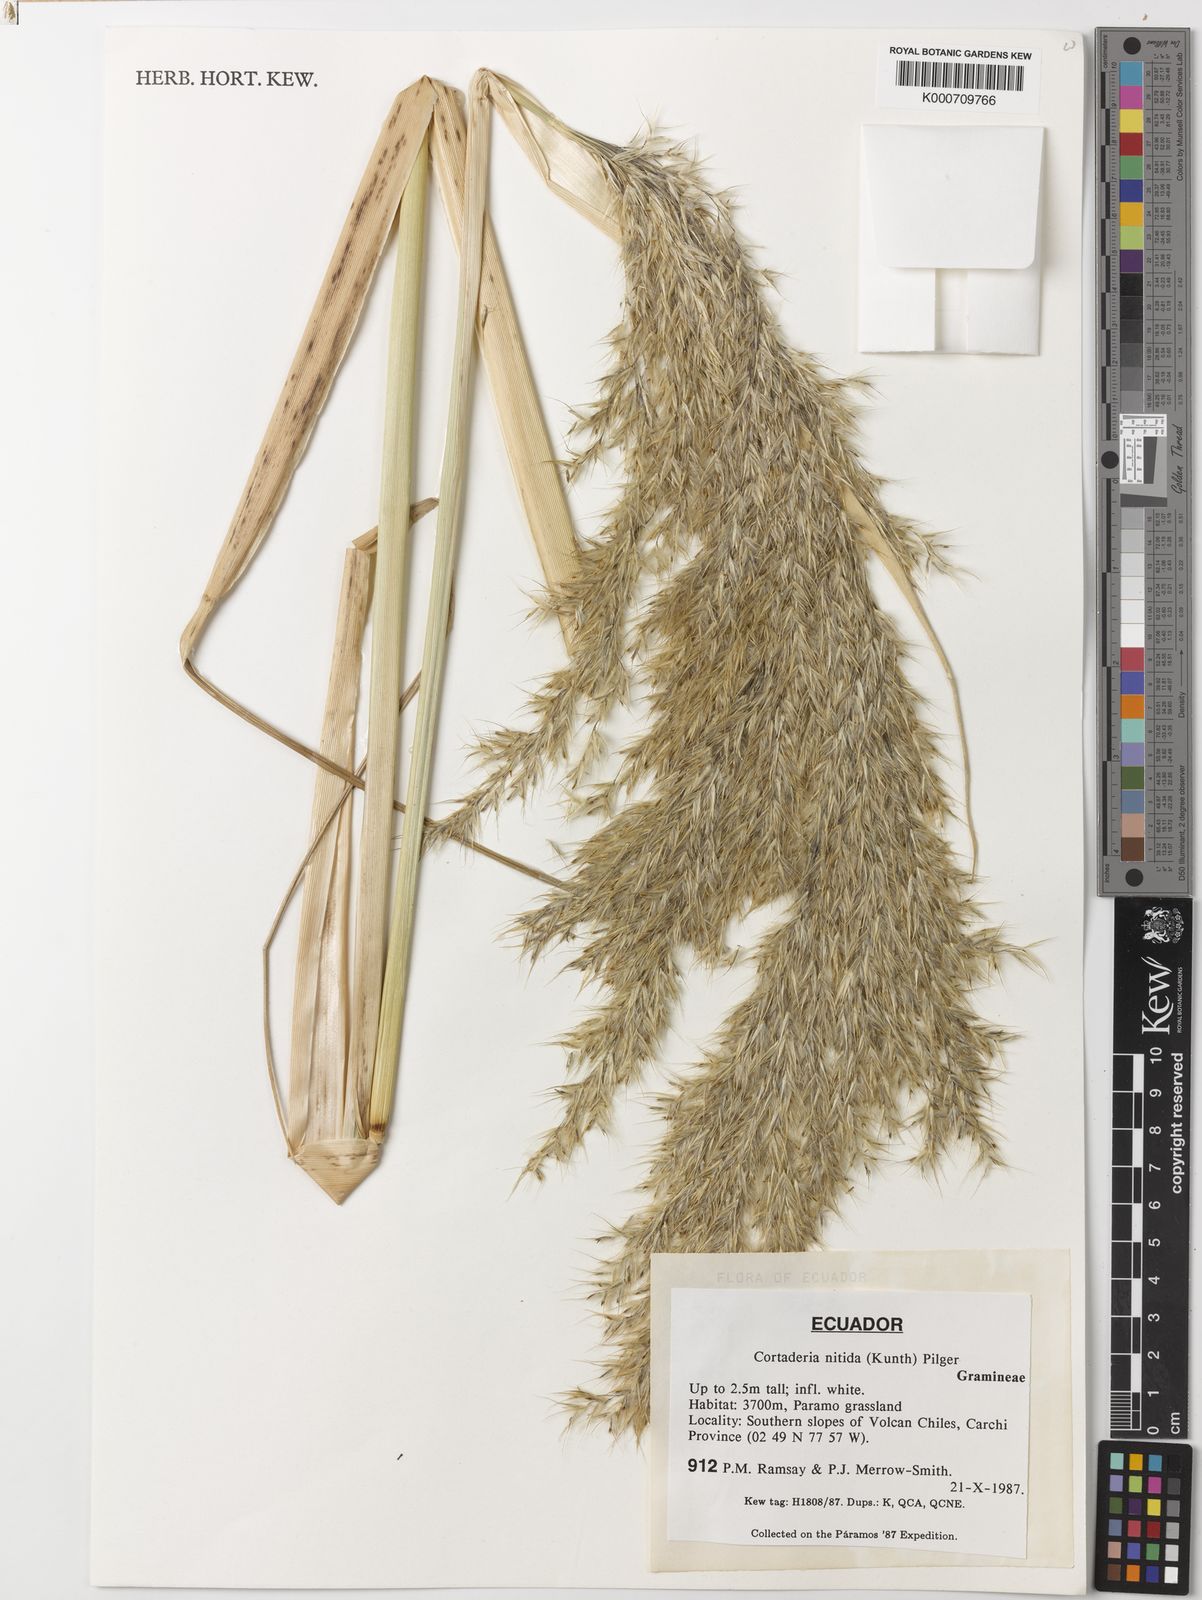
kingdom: Plantae
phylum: Tracheophyta
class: Liliopsida
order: Poales
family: Poaceae
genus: Cortaderia
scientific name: Cortaderia nitida
